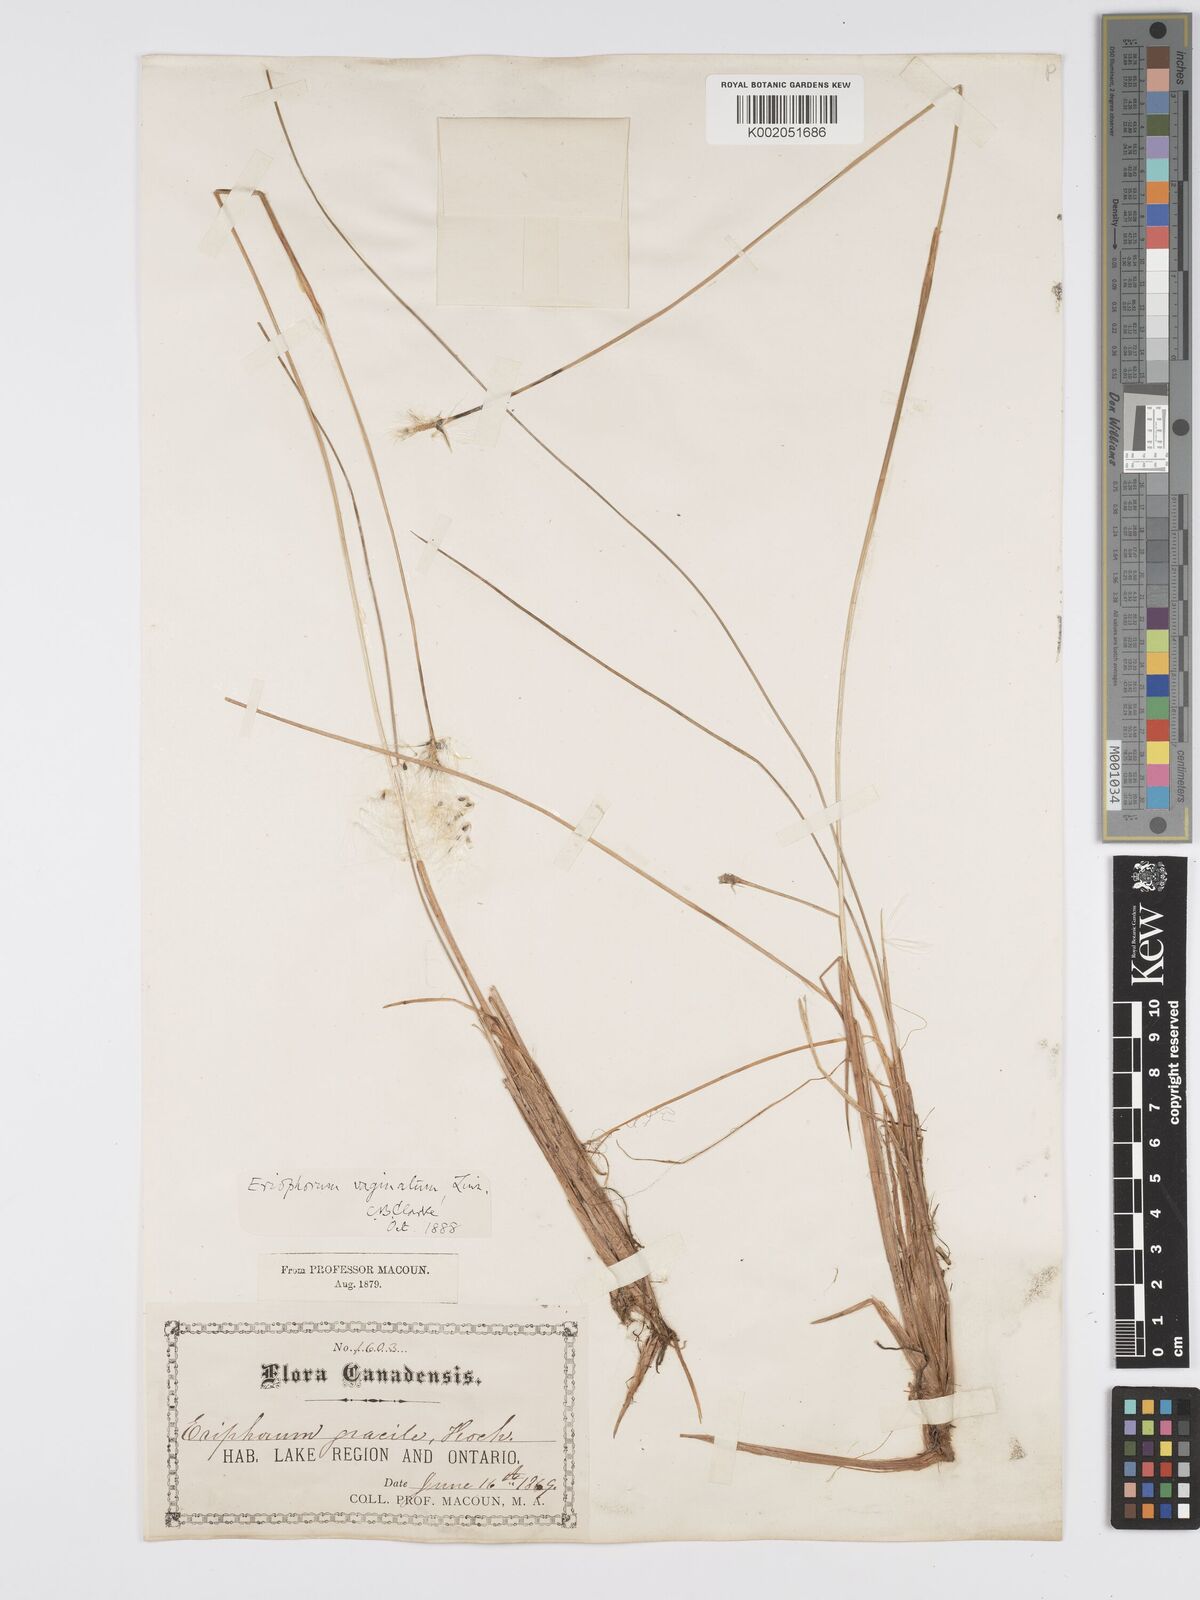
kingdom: Plantae
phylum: Tracheophyta
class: Liliopsida
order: Poales
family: Cyperaceae
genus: Eriophorum
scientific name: Eriophorum vaginatum
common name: Hare's-tail cottongrass
